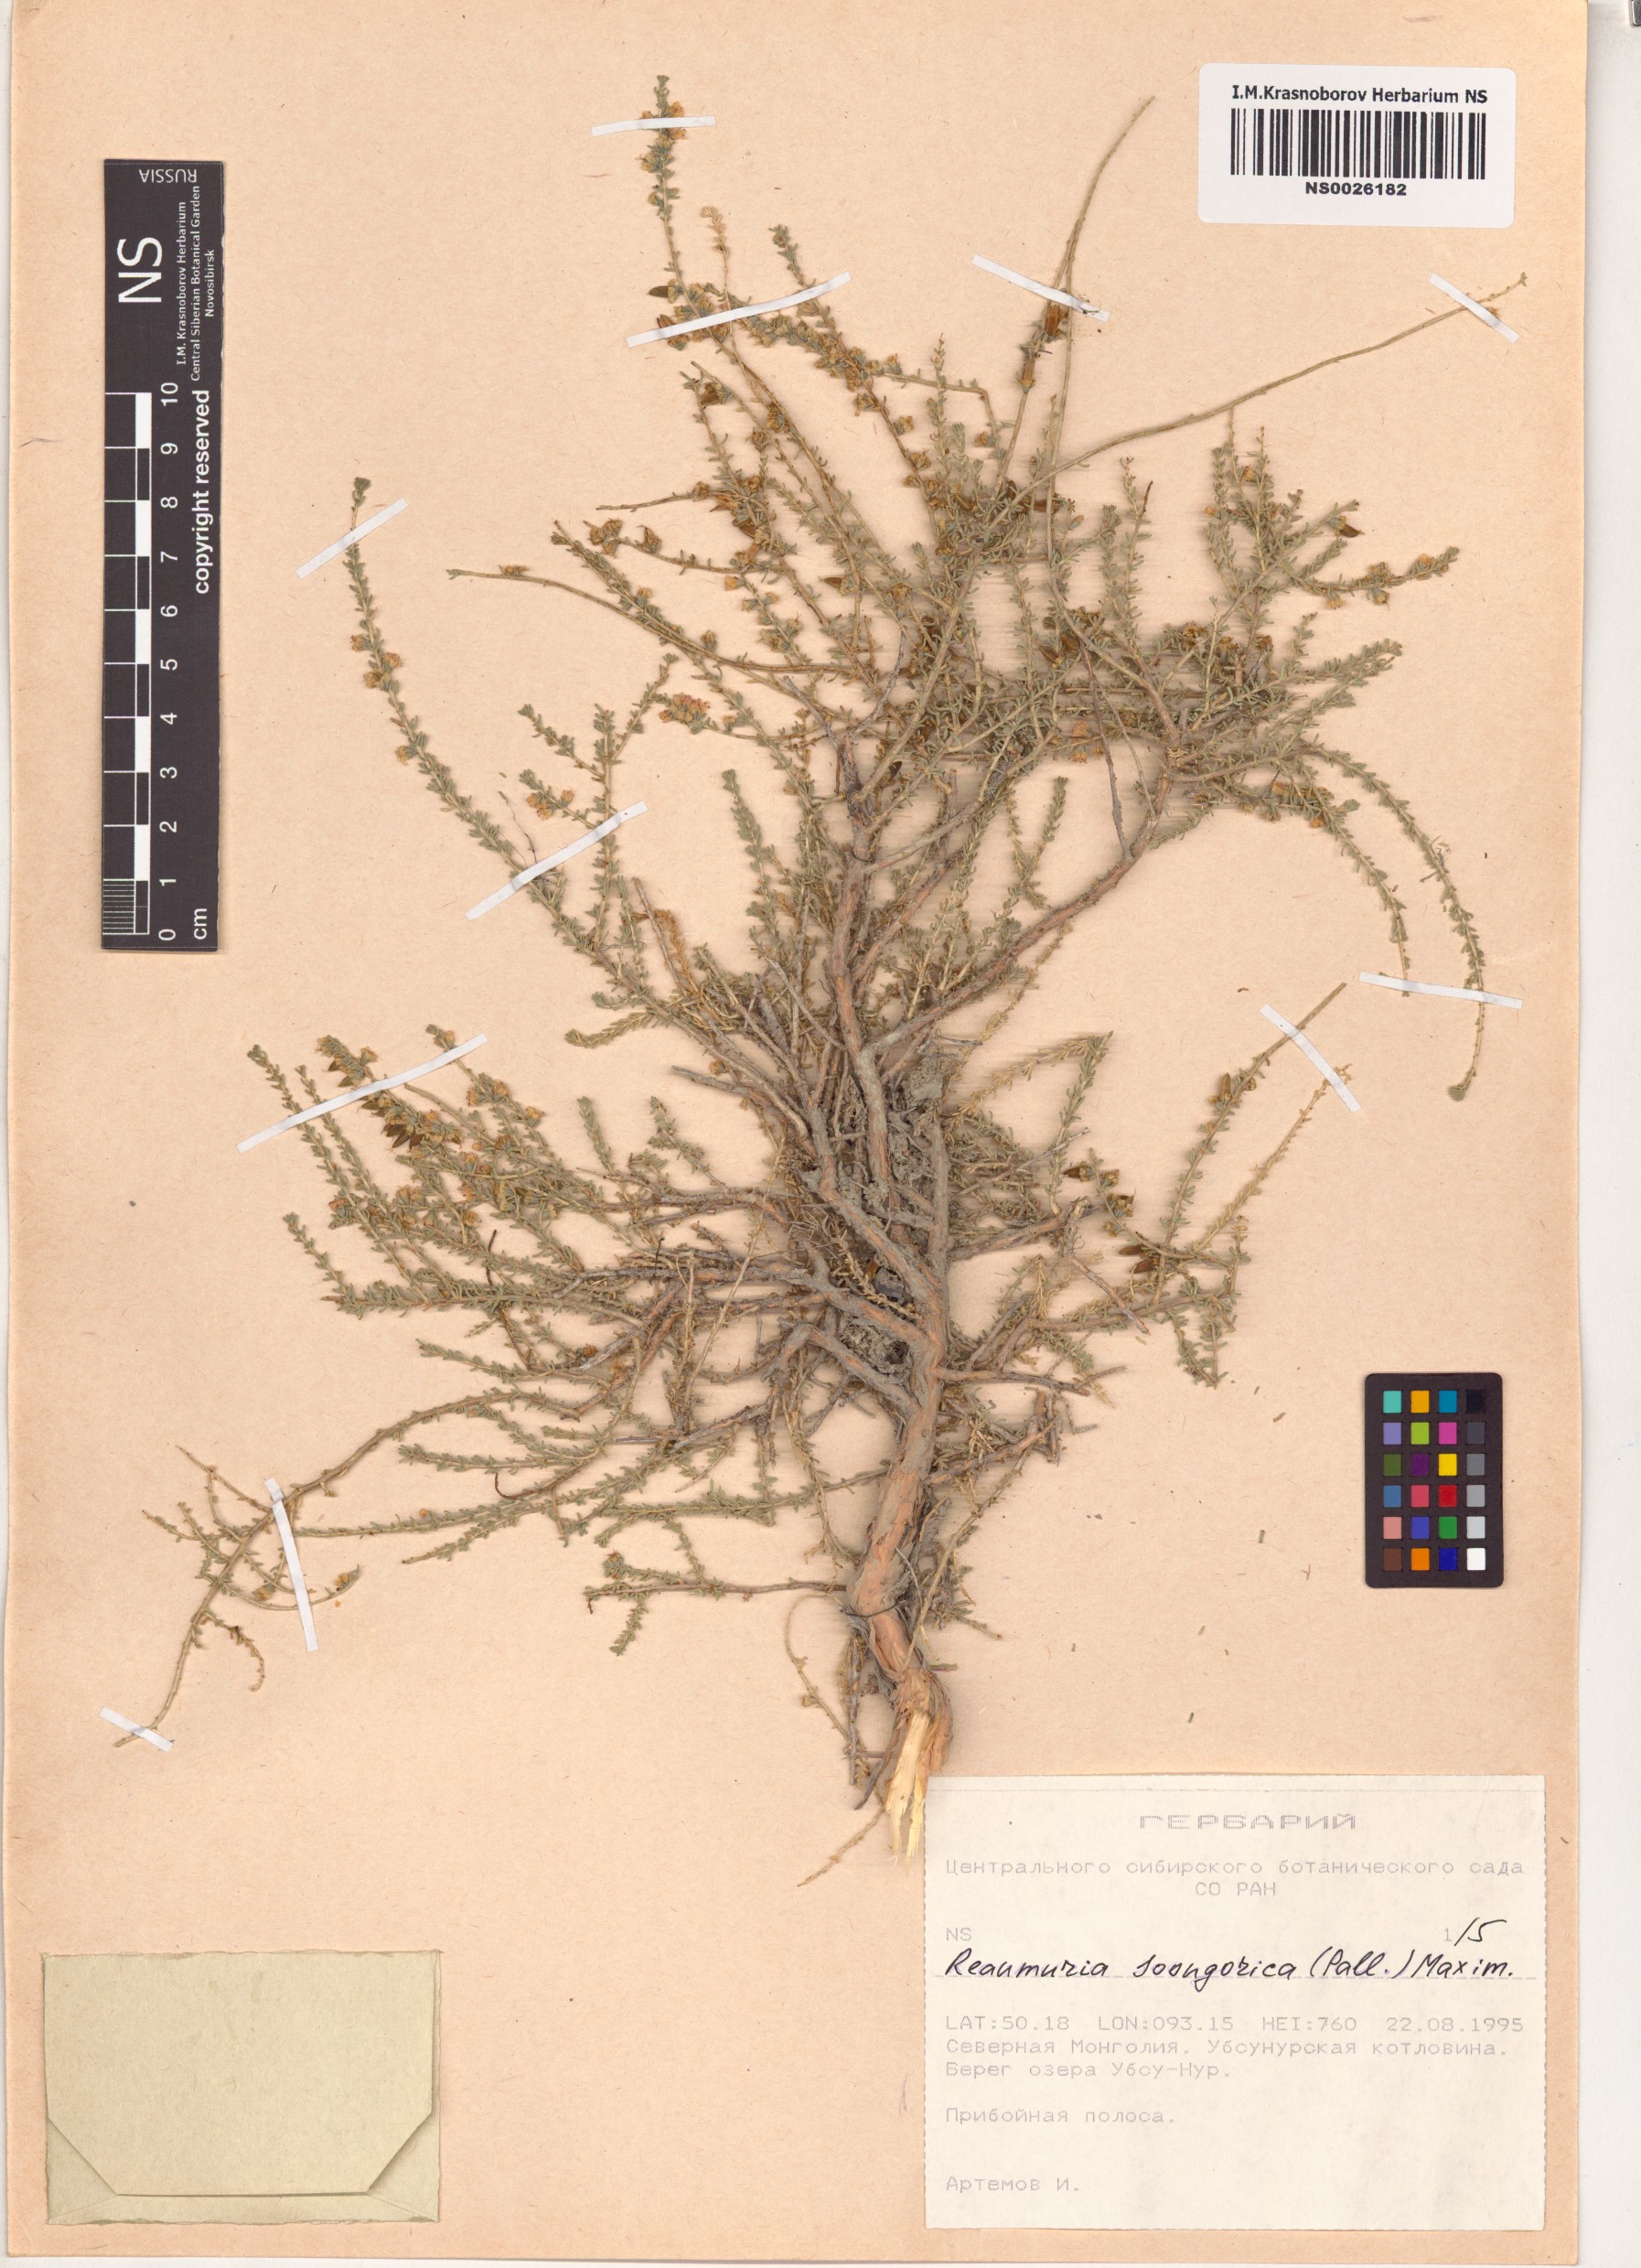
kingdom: Plantae
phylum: Tracheophyta
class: Magnoliopsida
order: Caryophyllales
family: Tamaricaceae
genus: Reaumuria
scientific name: Reaumuria songarica
